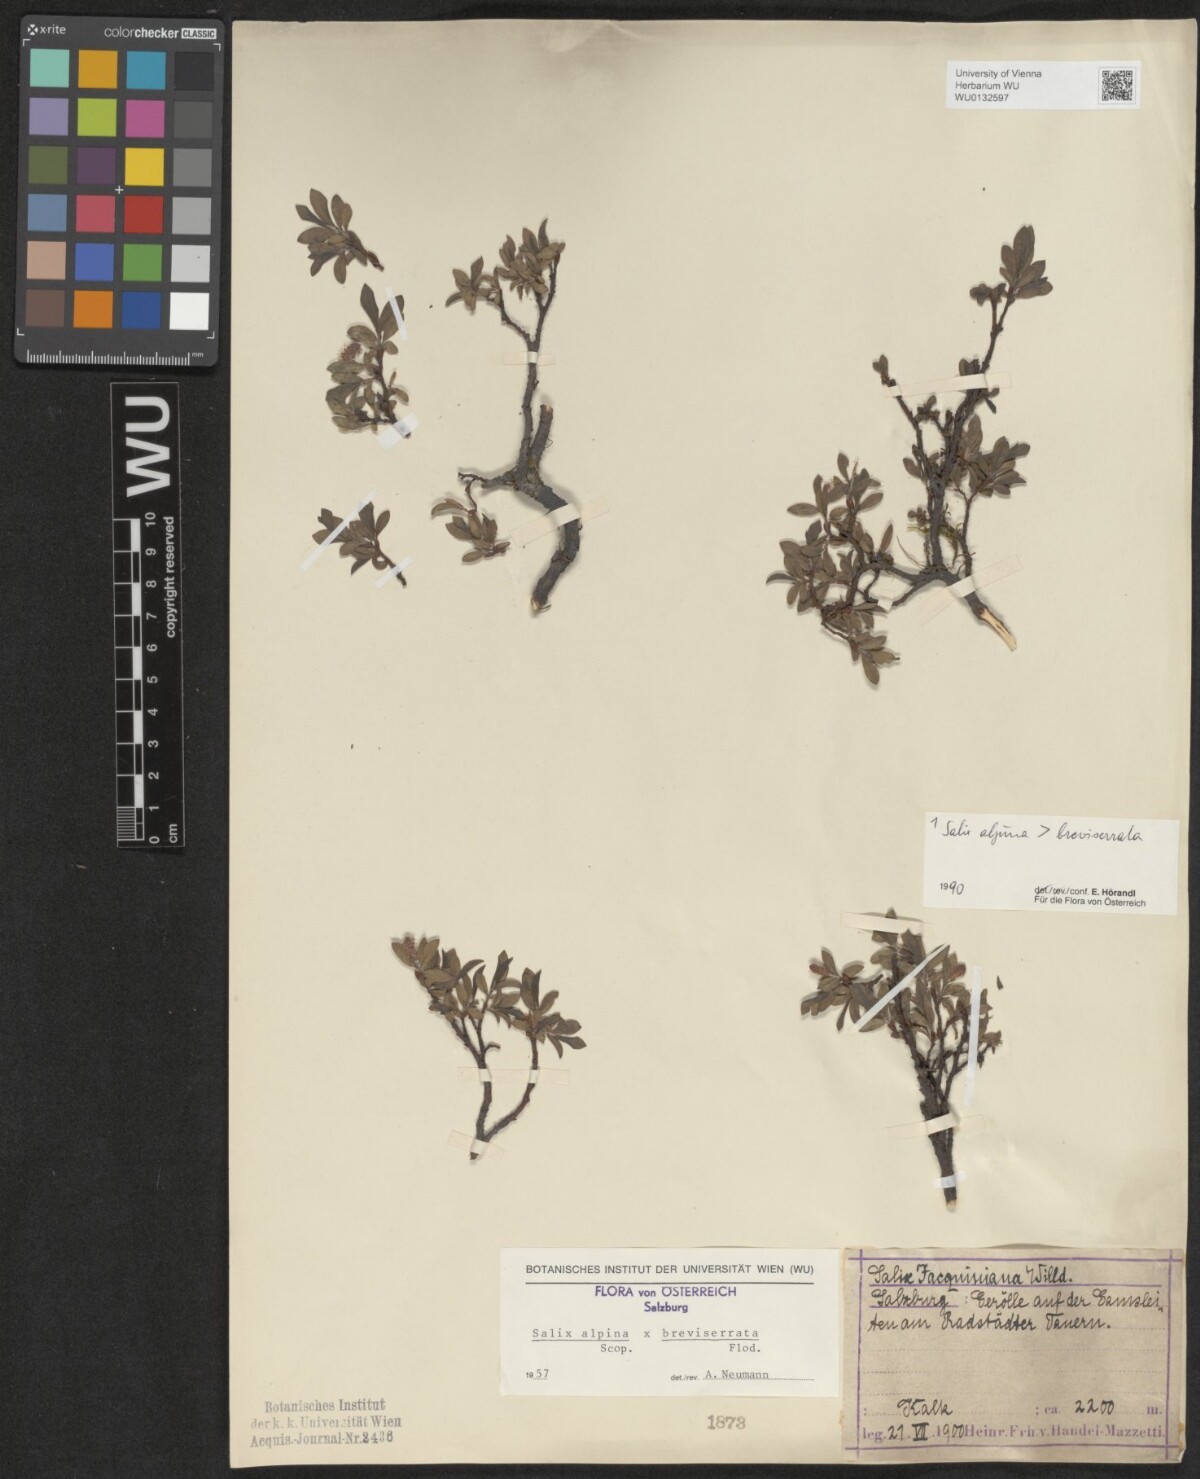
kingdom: Plantae
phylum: Tracheophyta
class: Magnoliopsida
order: Malpighiales
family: Salicaceae
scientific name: Salicaceae
